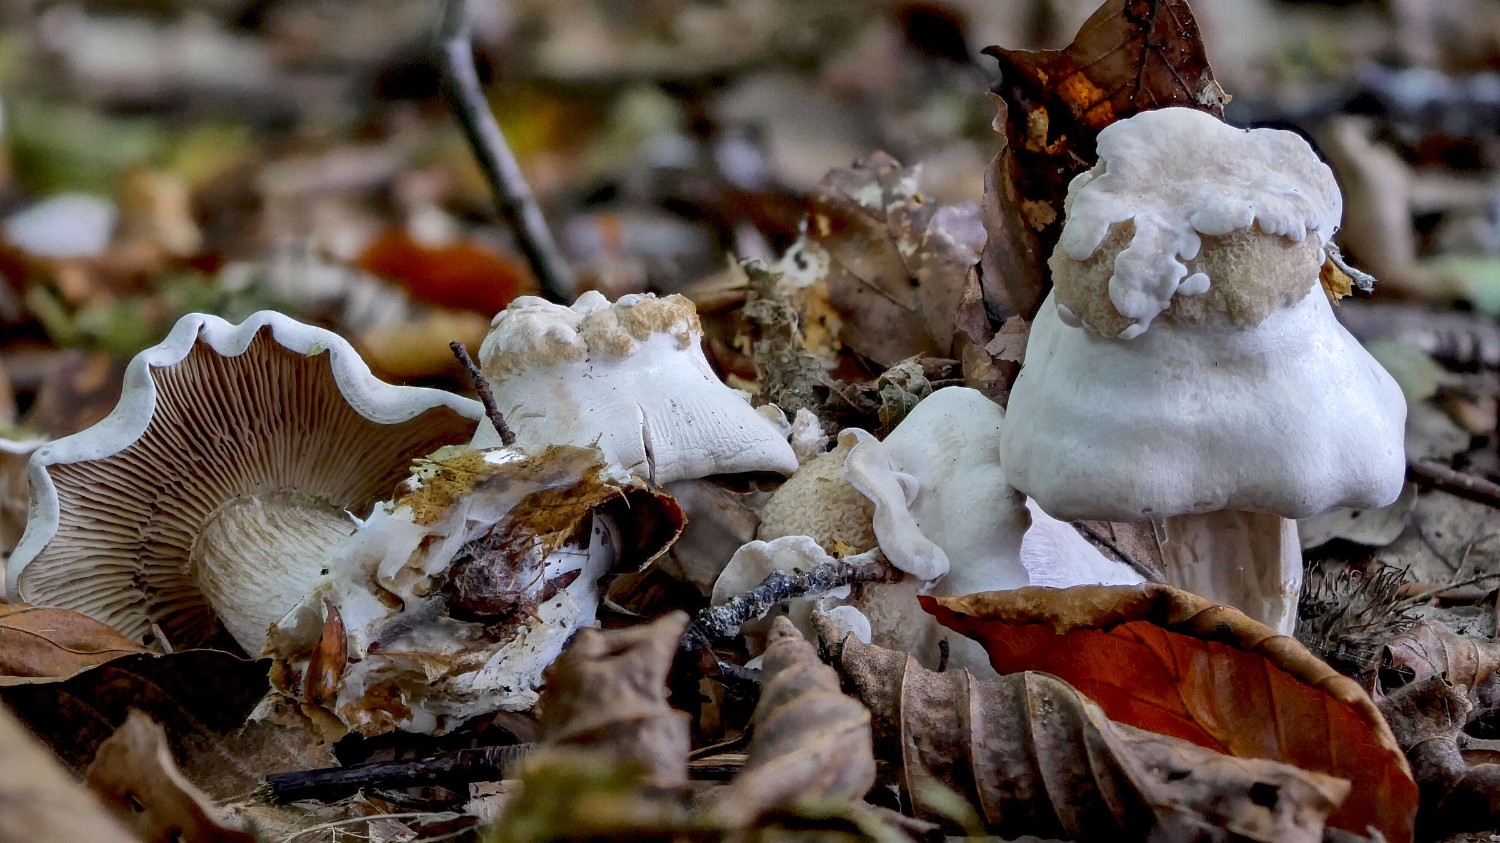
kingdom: Fungi
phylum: Basidiomycota
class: Agaricomycetes
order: Agaricales
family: Tricholomataceae
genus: Leucocybe
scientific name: Leucocybe connata
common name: knippe-tragthat
